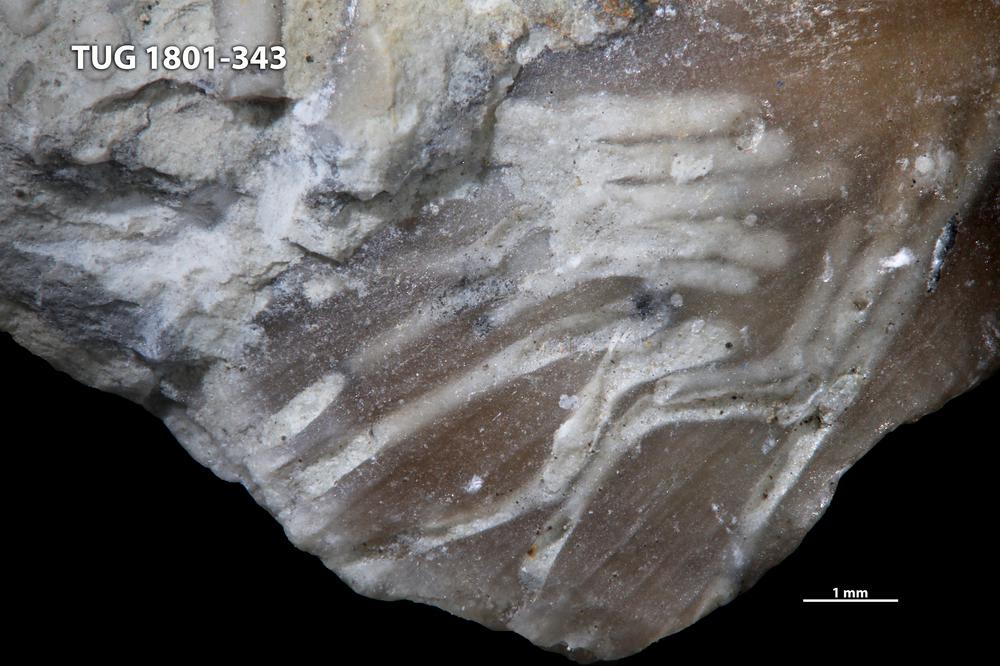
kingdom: Animalia
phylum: Annelida
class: Polychaeta
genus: Palaeosabella
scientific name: Palaeosabella
